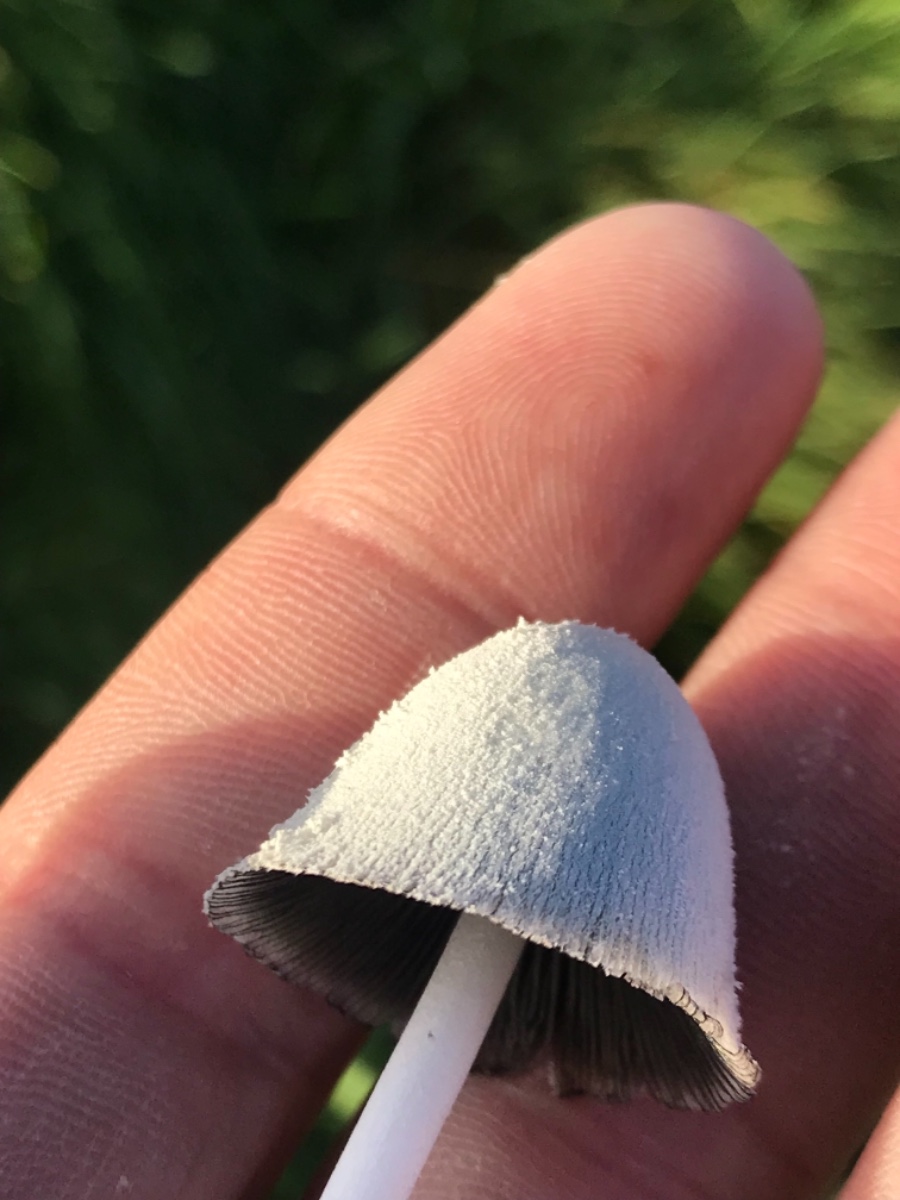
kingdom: Fungi
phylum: Basidiomycota
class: Agaricomycetes
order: Agaricales
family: Psathyrellaceae
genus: Coprinopsis
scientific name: Coprinopsis nivea
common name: snehvid blækhat
